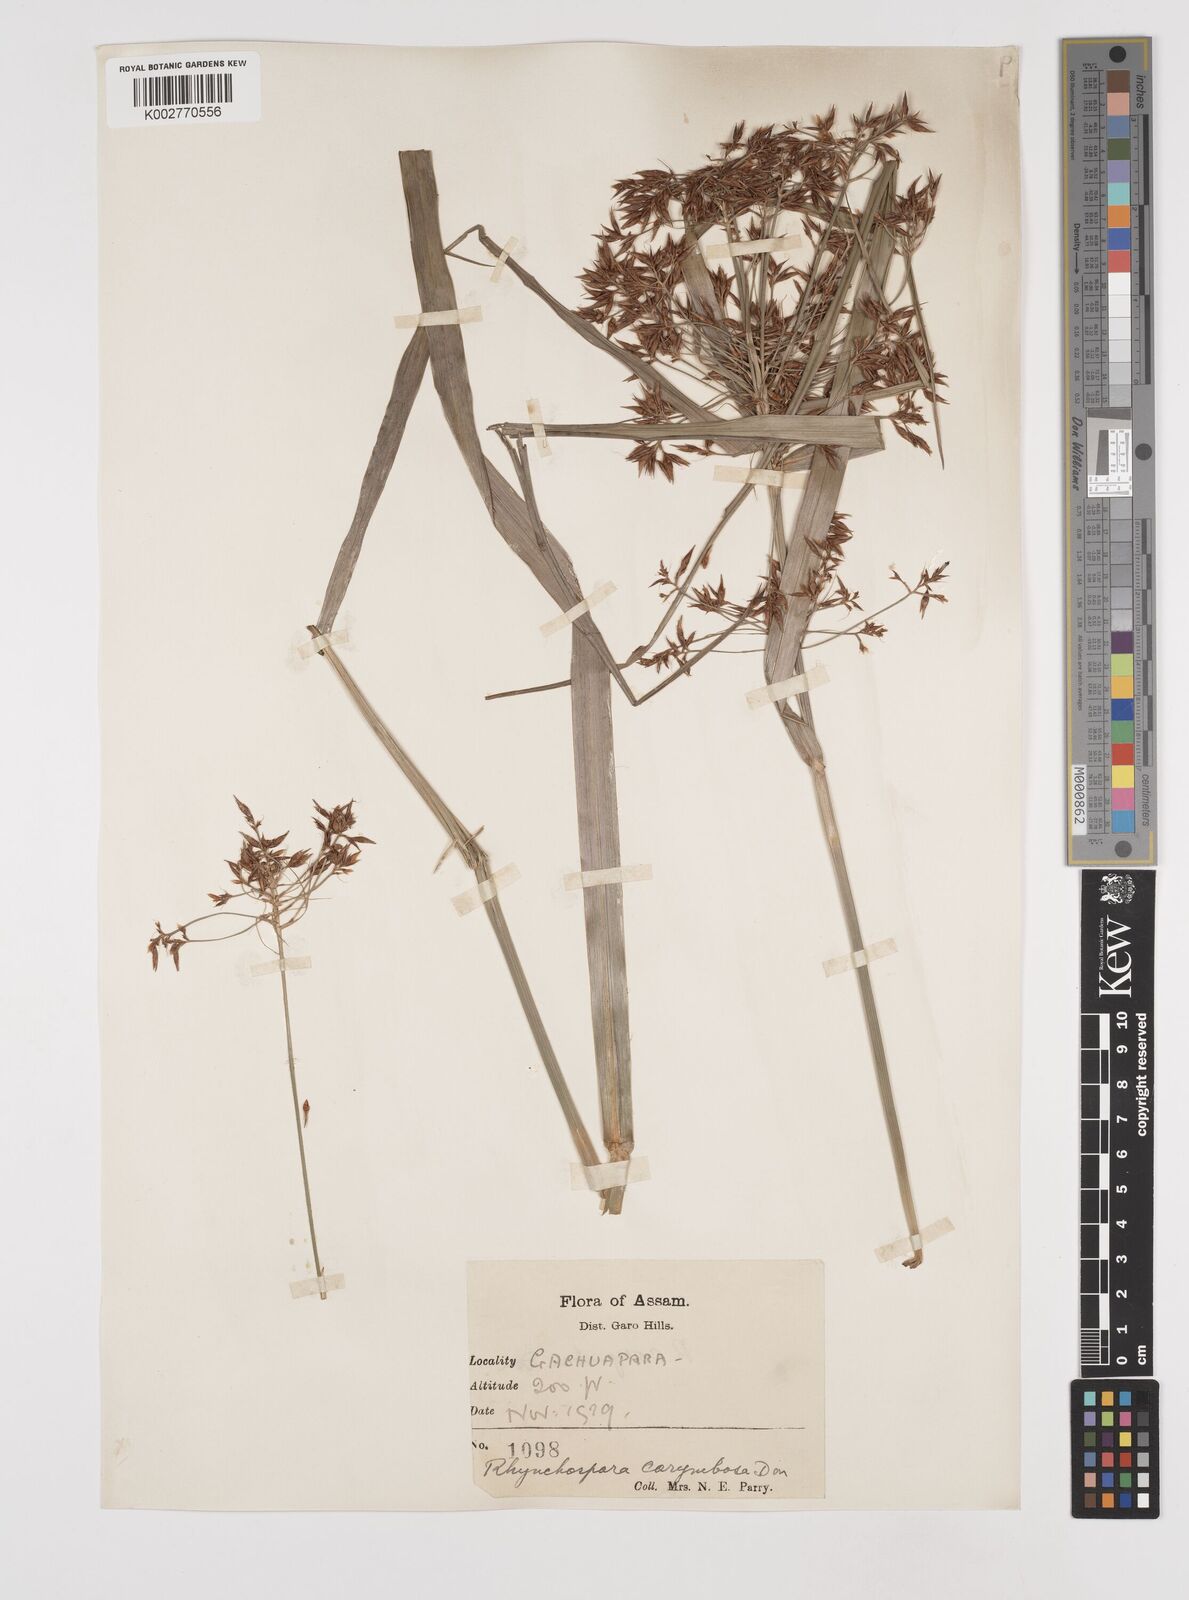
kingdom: Plantae
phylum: Tracheophyta
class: Liliopsida
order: Poales
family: Cyperaceae
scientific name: Cyperaceae
